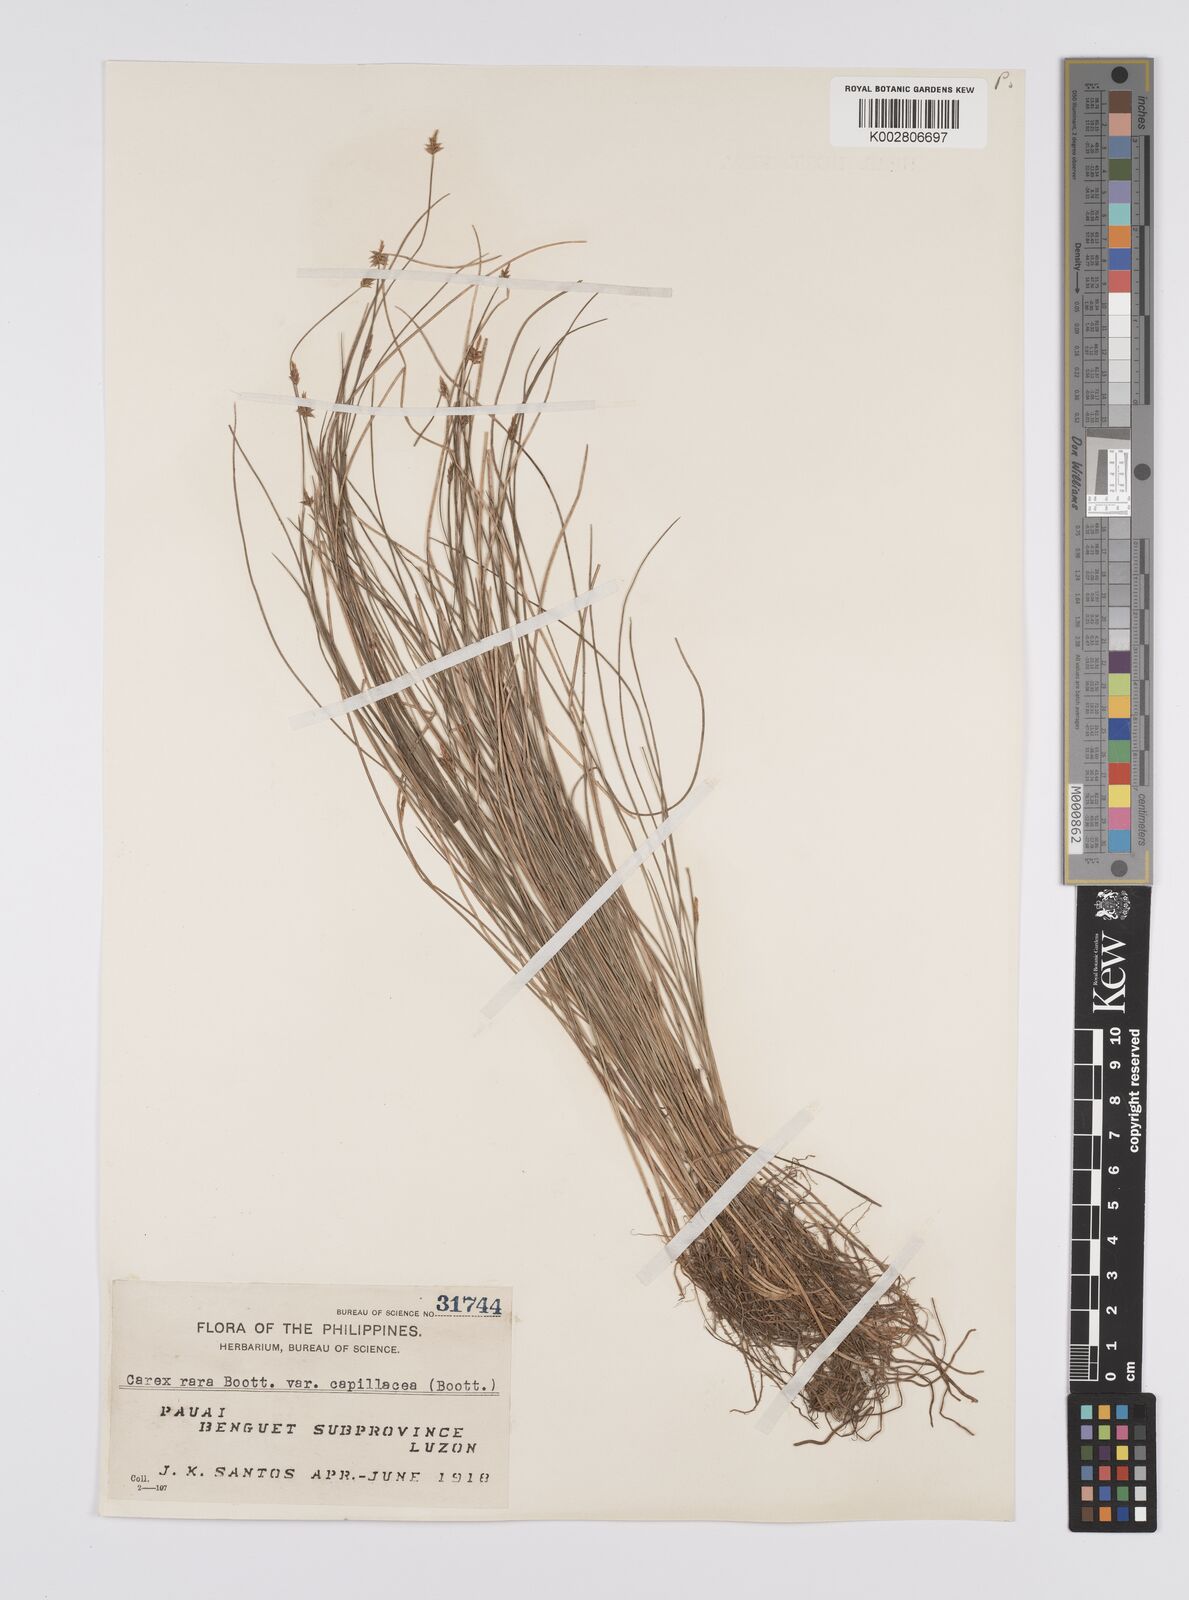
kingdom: Plantae
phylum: Tracheophyta
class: Liliopsida
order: Poales
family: Cyperaceae
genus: Carex
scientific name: Carex capillacea
